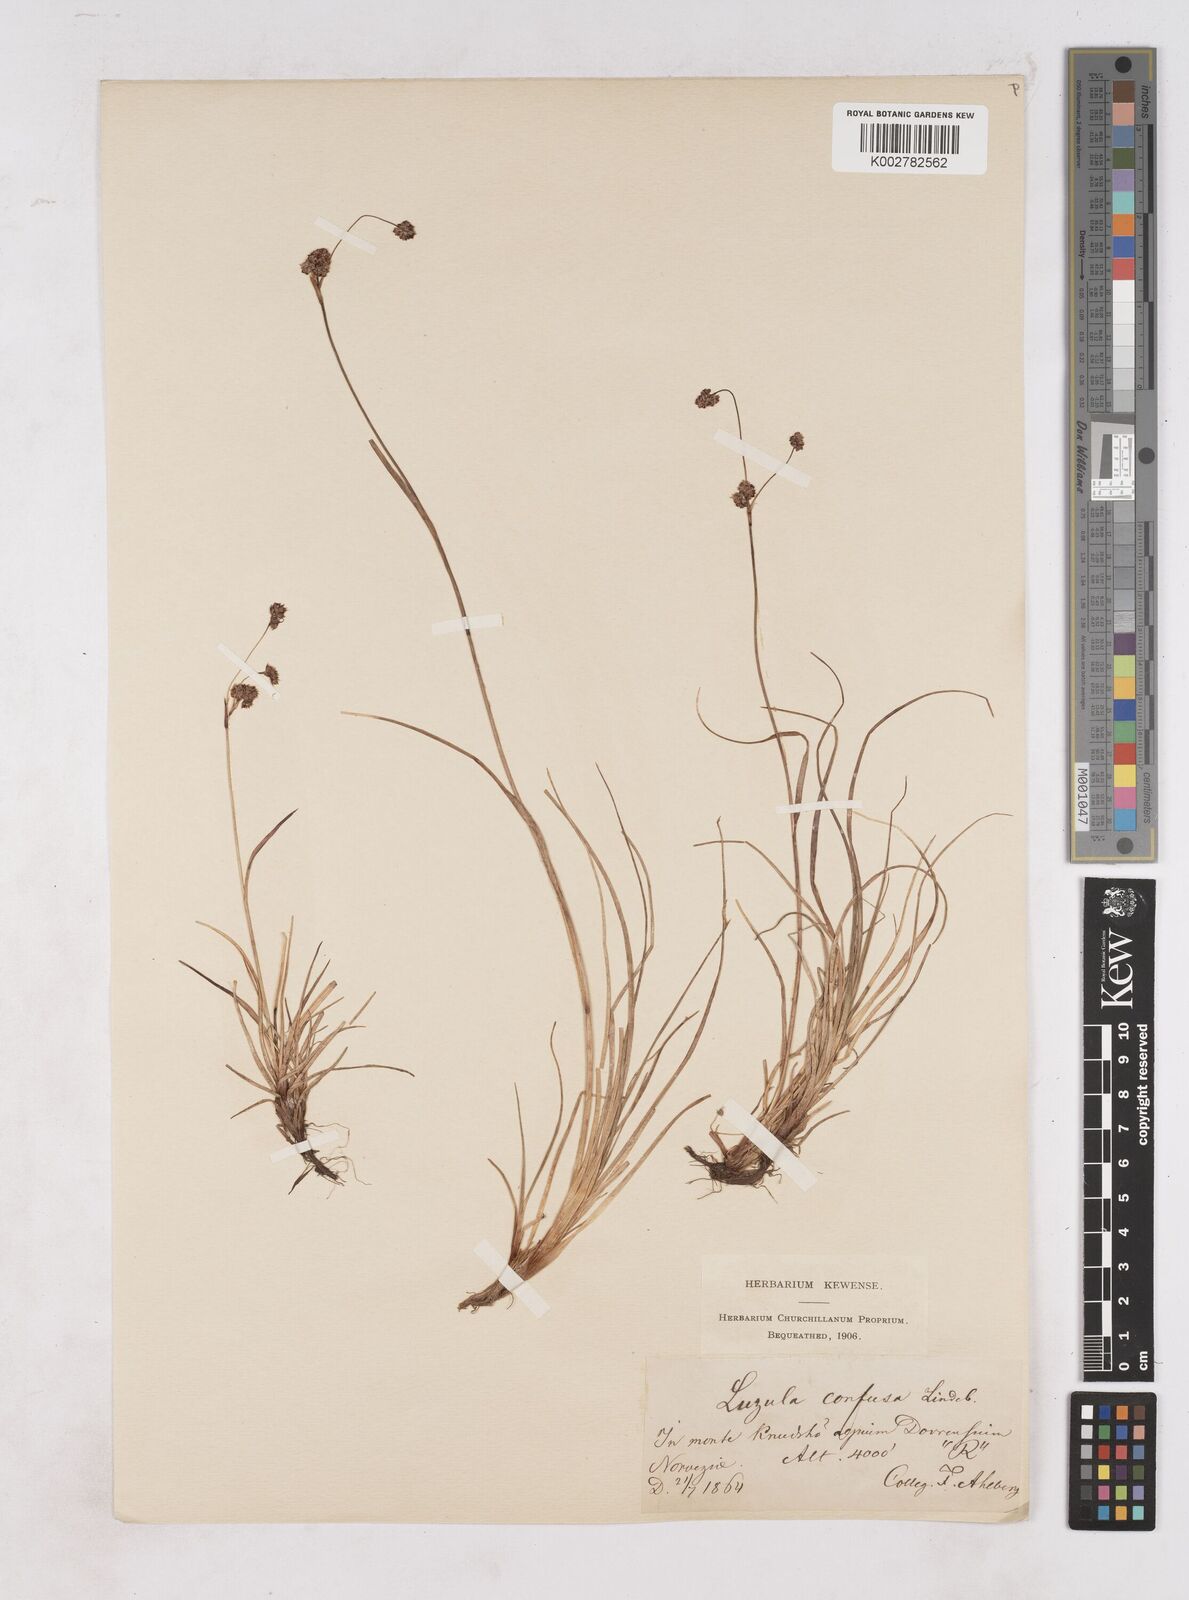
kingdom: Plantae
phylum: Tracheophyta
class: Liliopsida
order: Poales
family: Juncaceae
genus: Luzula
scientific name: Luzula confusa
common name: Northern wood rush
